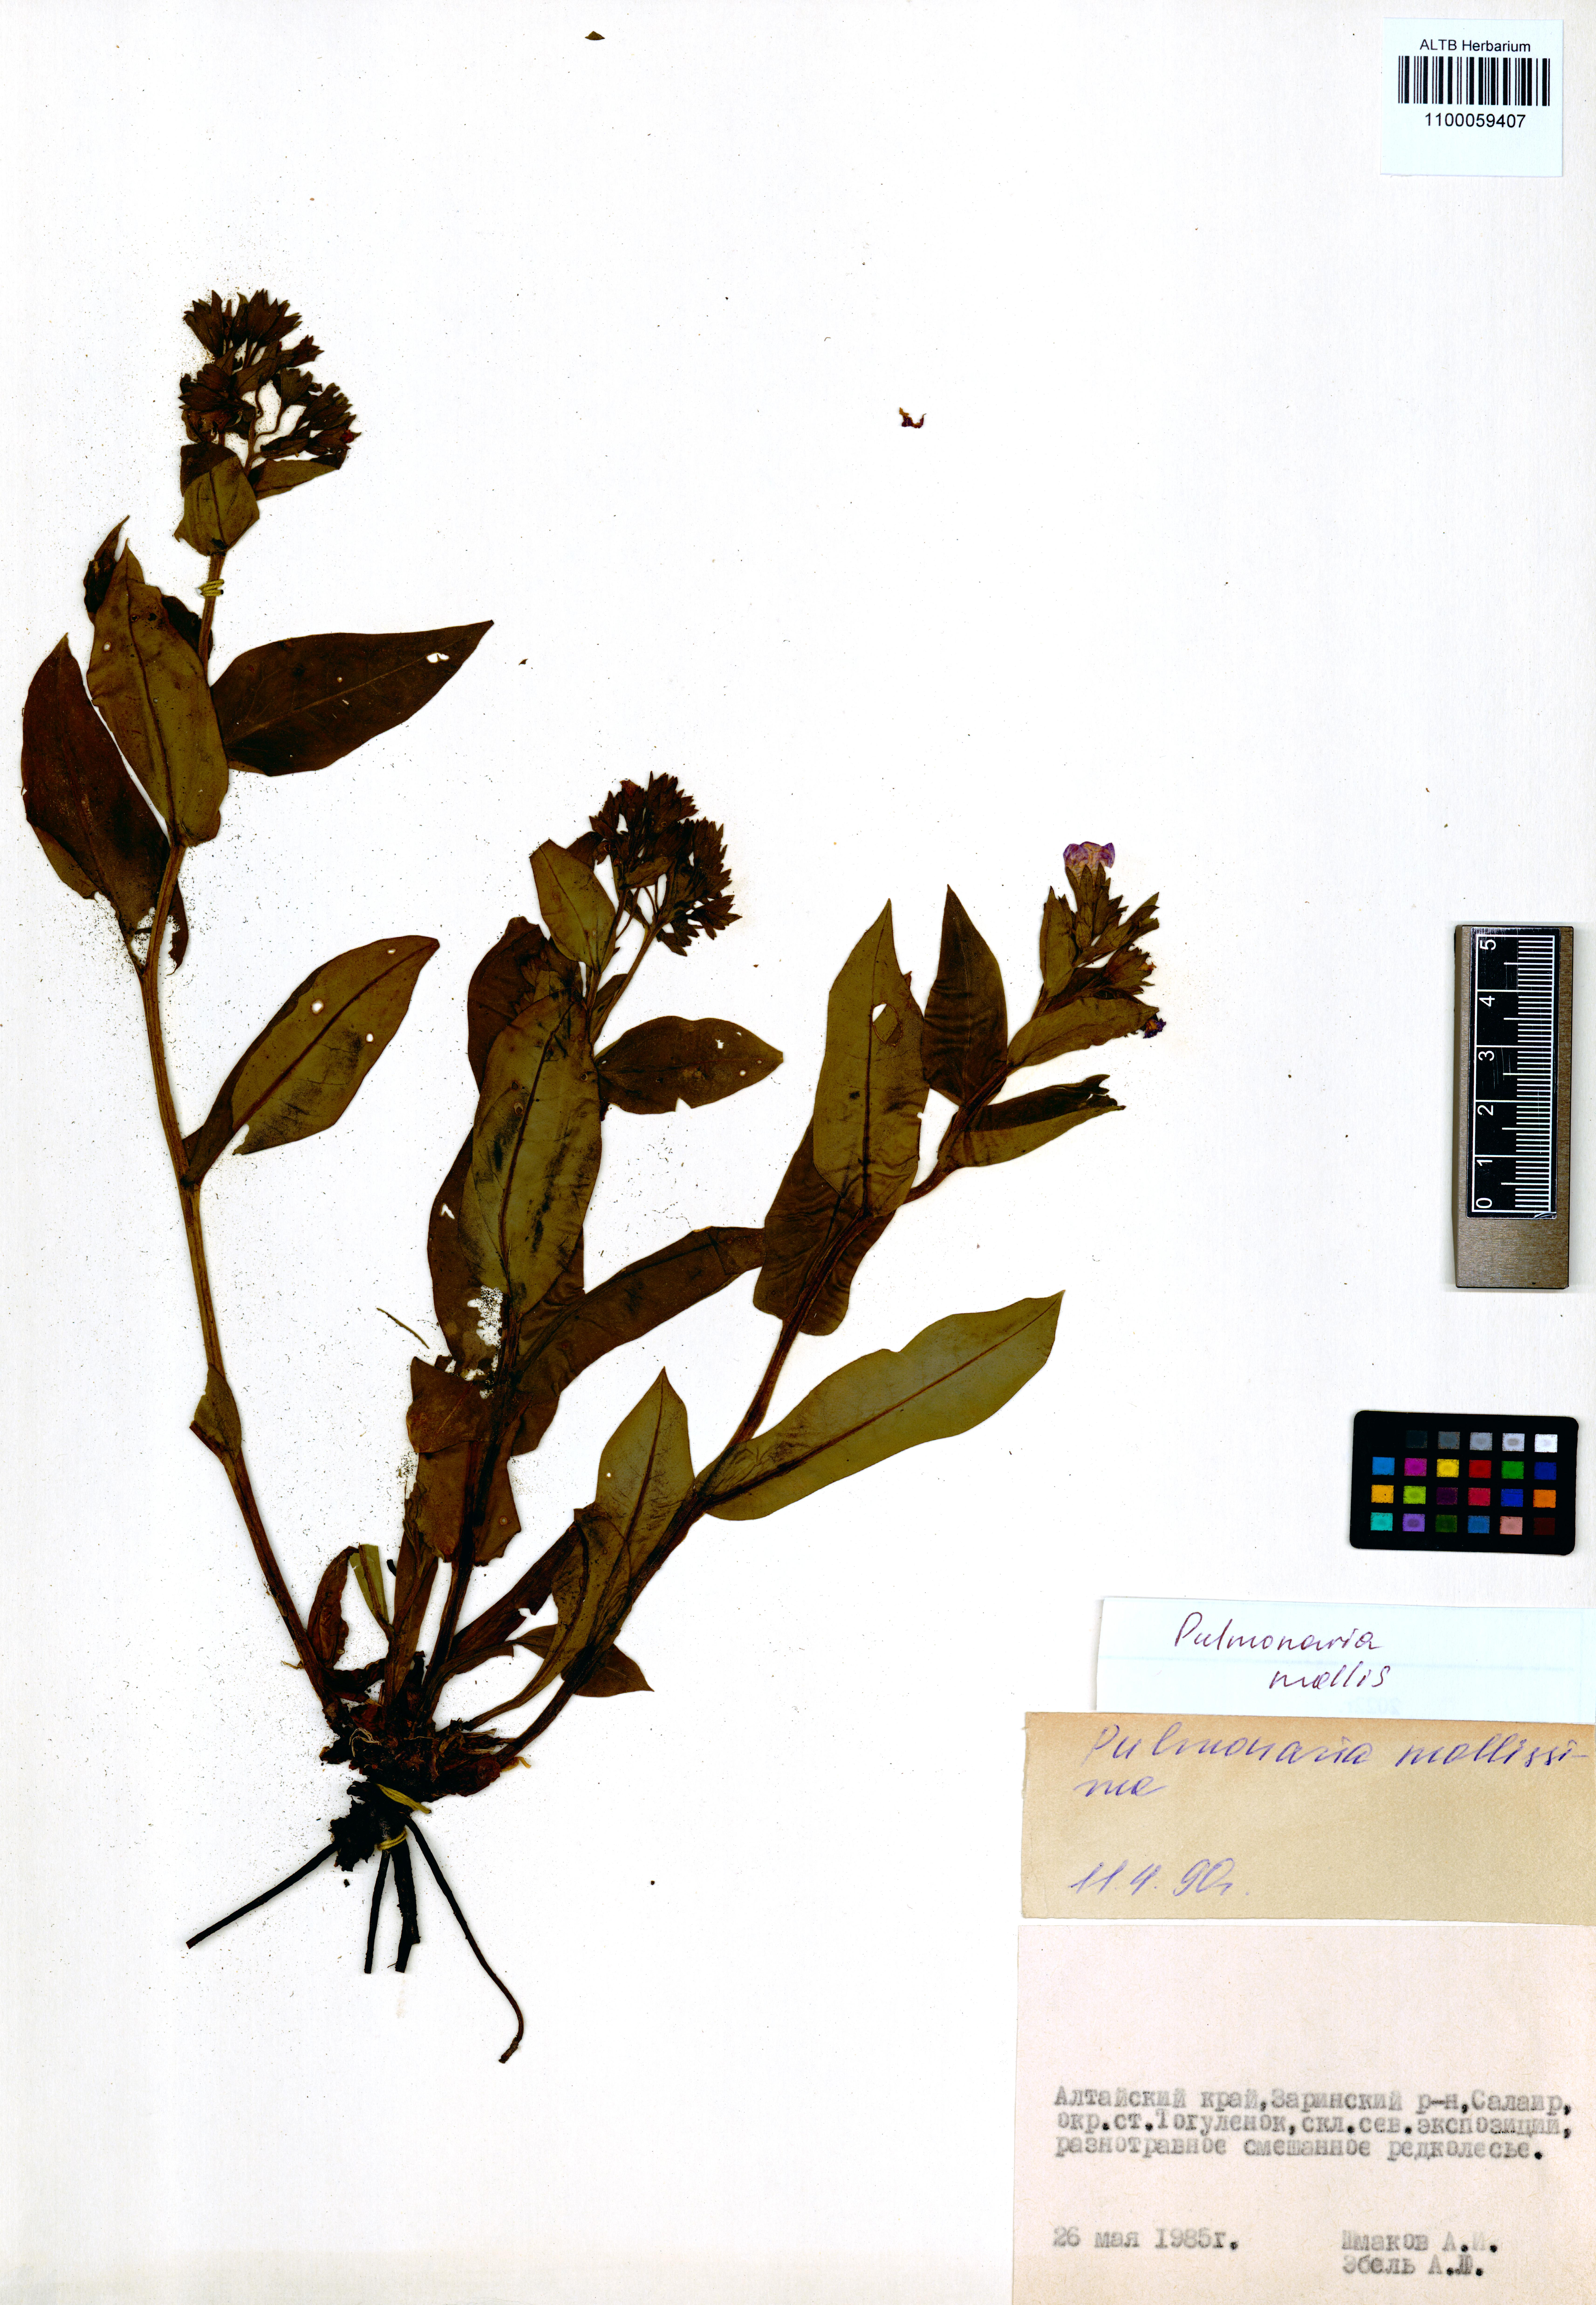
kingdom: Plantae
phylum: Tracheophyta
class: Magnoliopsida
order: Boraginales
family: Boraginaceae
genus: Pulmonaria
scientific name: Pulmonaria mollis
